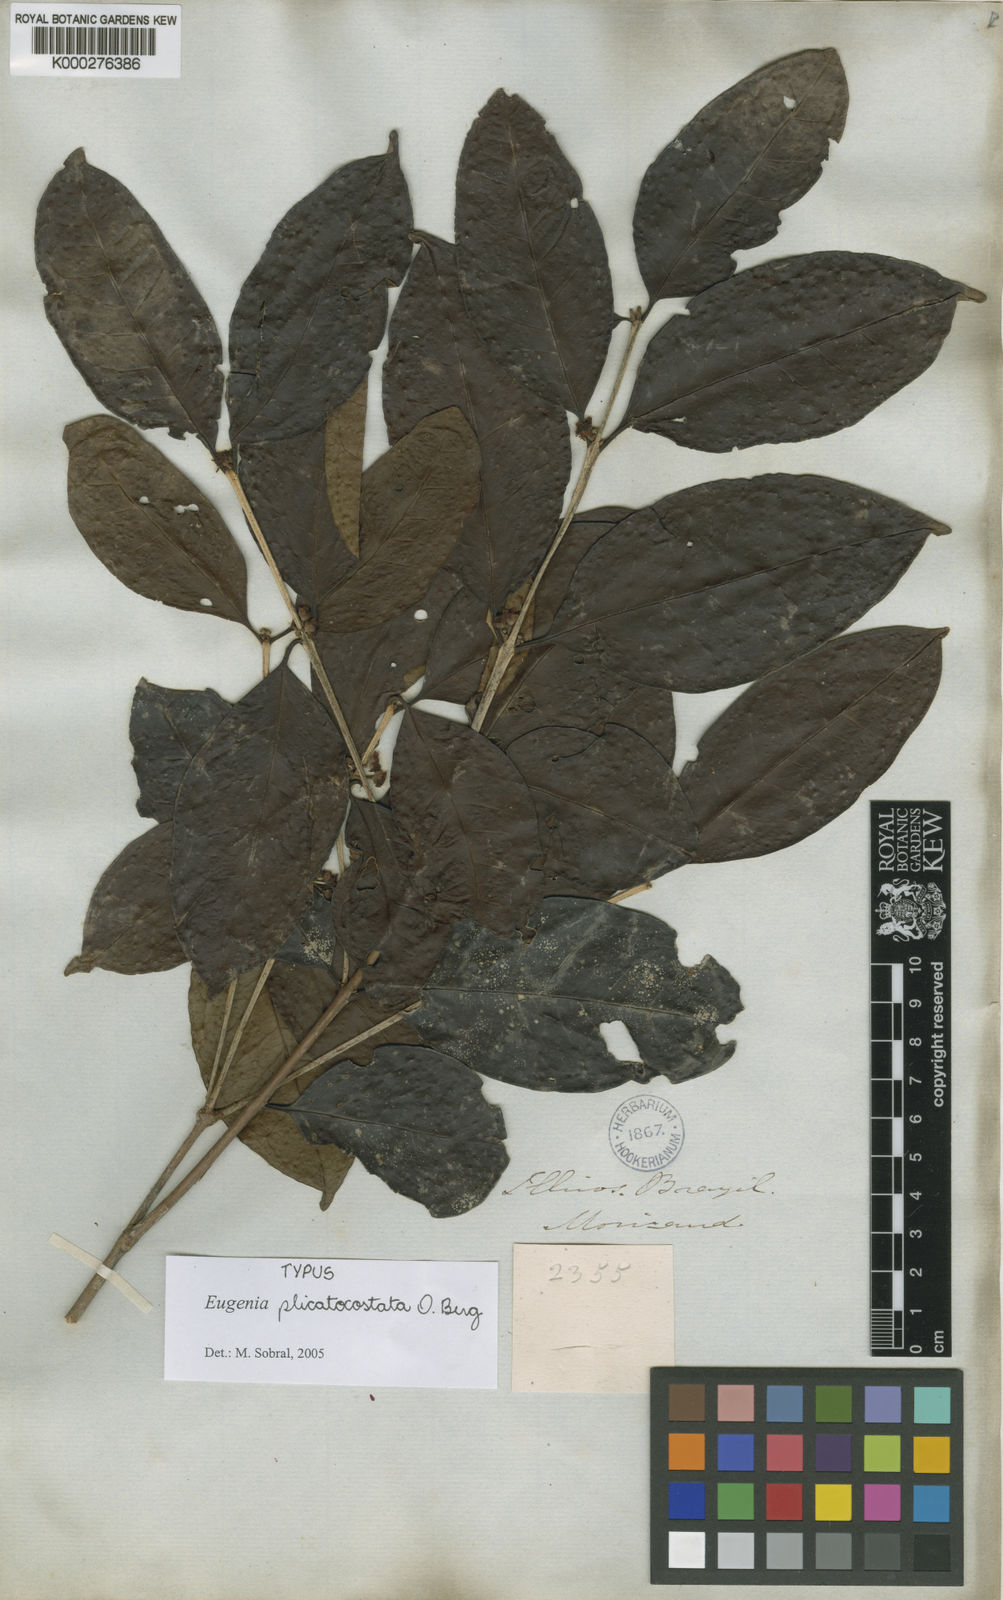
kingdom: Plantae
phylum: Tracheophyta
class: Magnoliopsida
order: Myrtales
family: Myrtaceae
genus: Eugenia
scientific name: Eugenia plicatocostata
